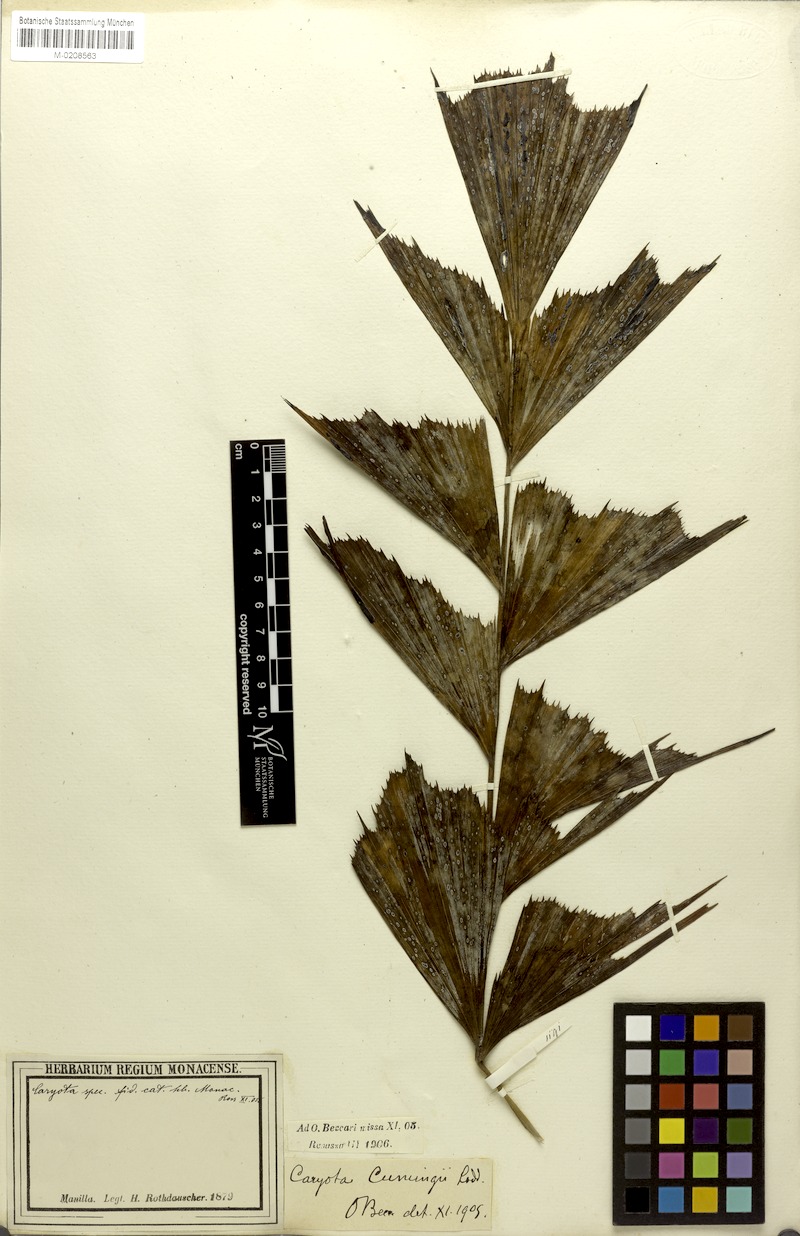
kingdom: Plantae
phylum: Tracheophyta
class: Liliopsida
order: Arecales
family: Arecaceae
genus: Caryota
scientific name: Caryota cumingii
